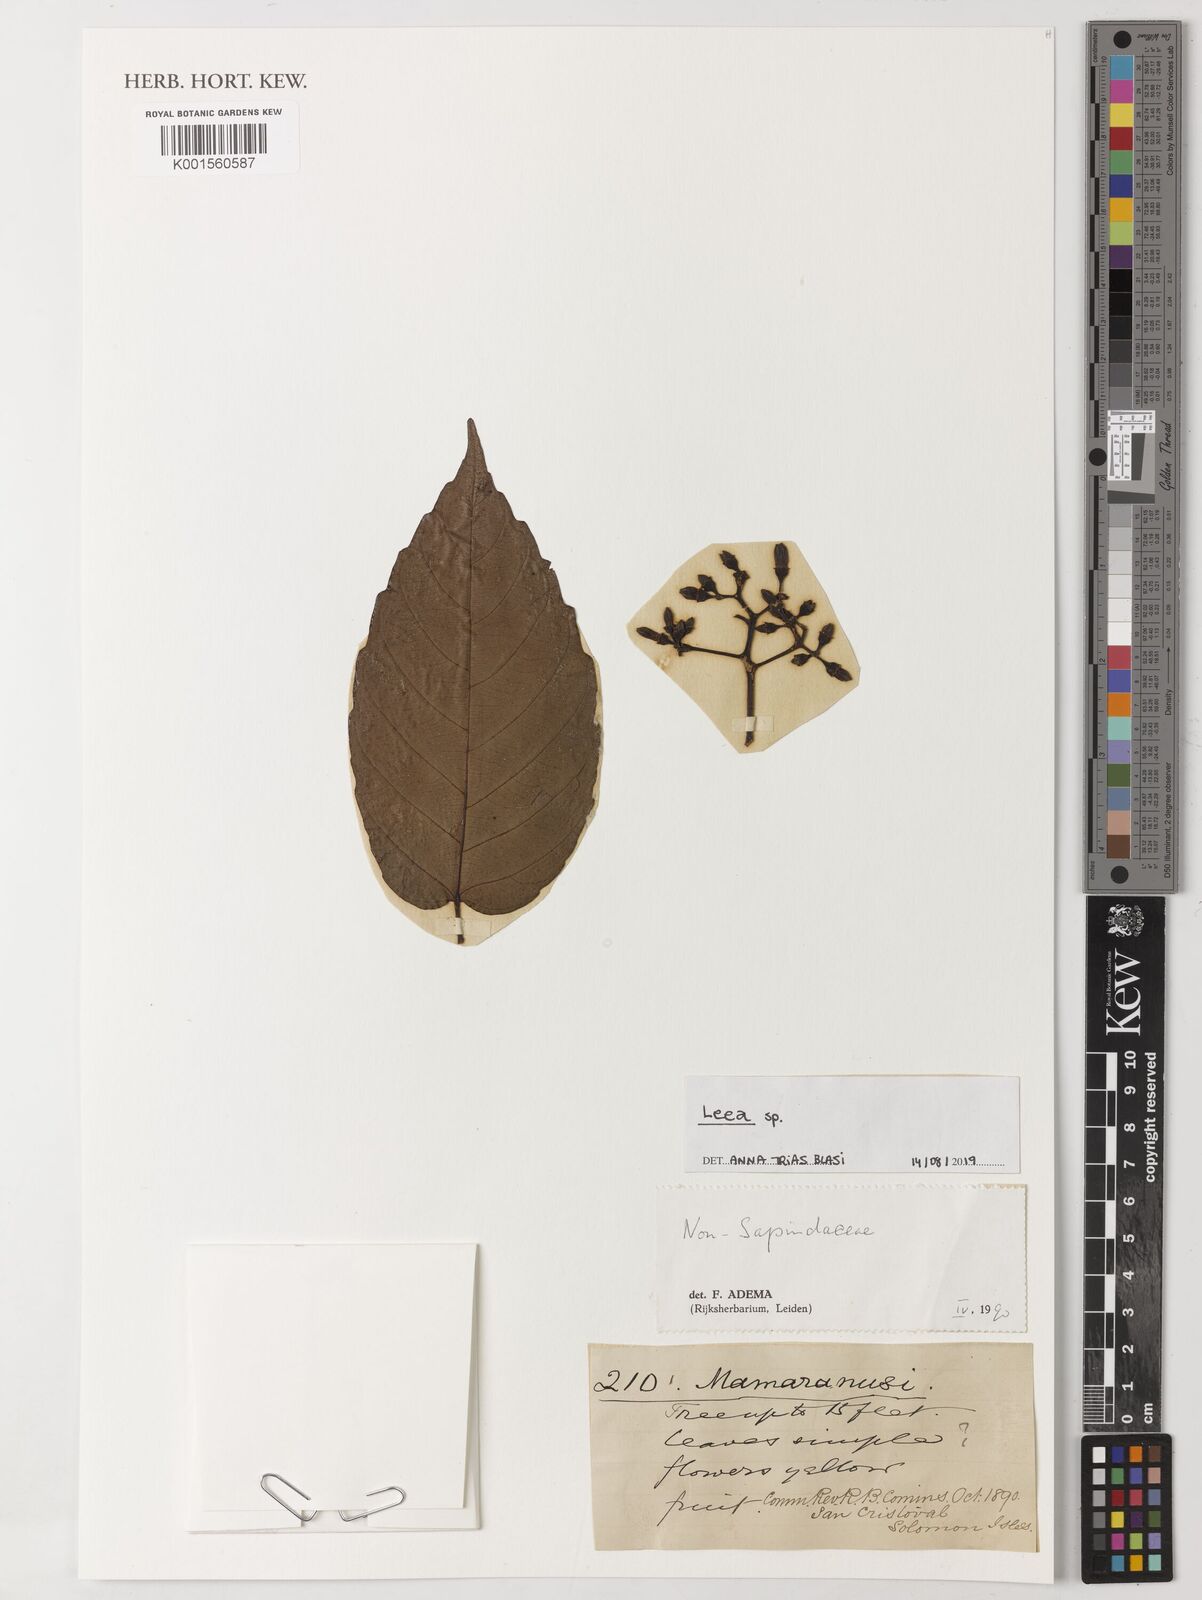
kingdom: Plantae
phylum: Tracheophyta
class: Magnoliopsida
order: Vitales
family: Vitaceae
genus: Leea
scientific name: Leea
